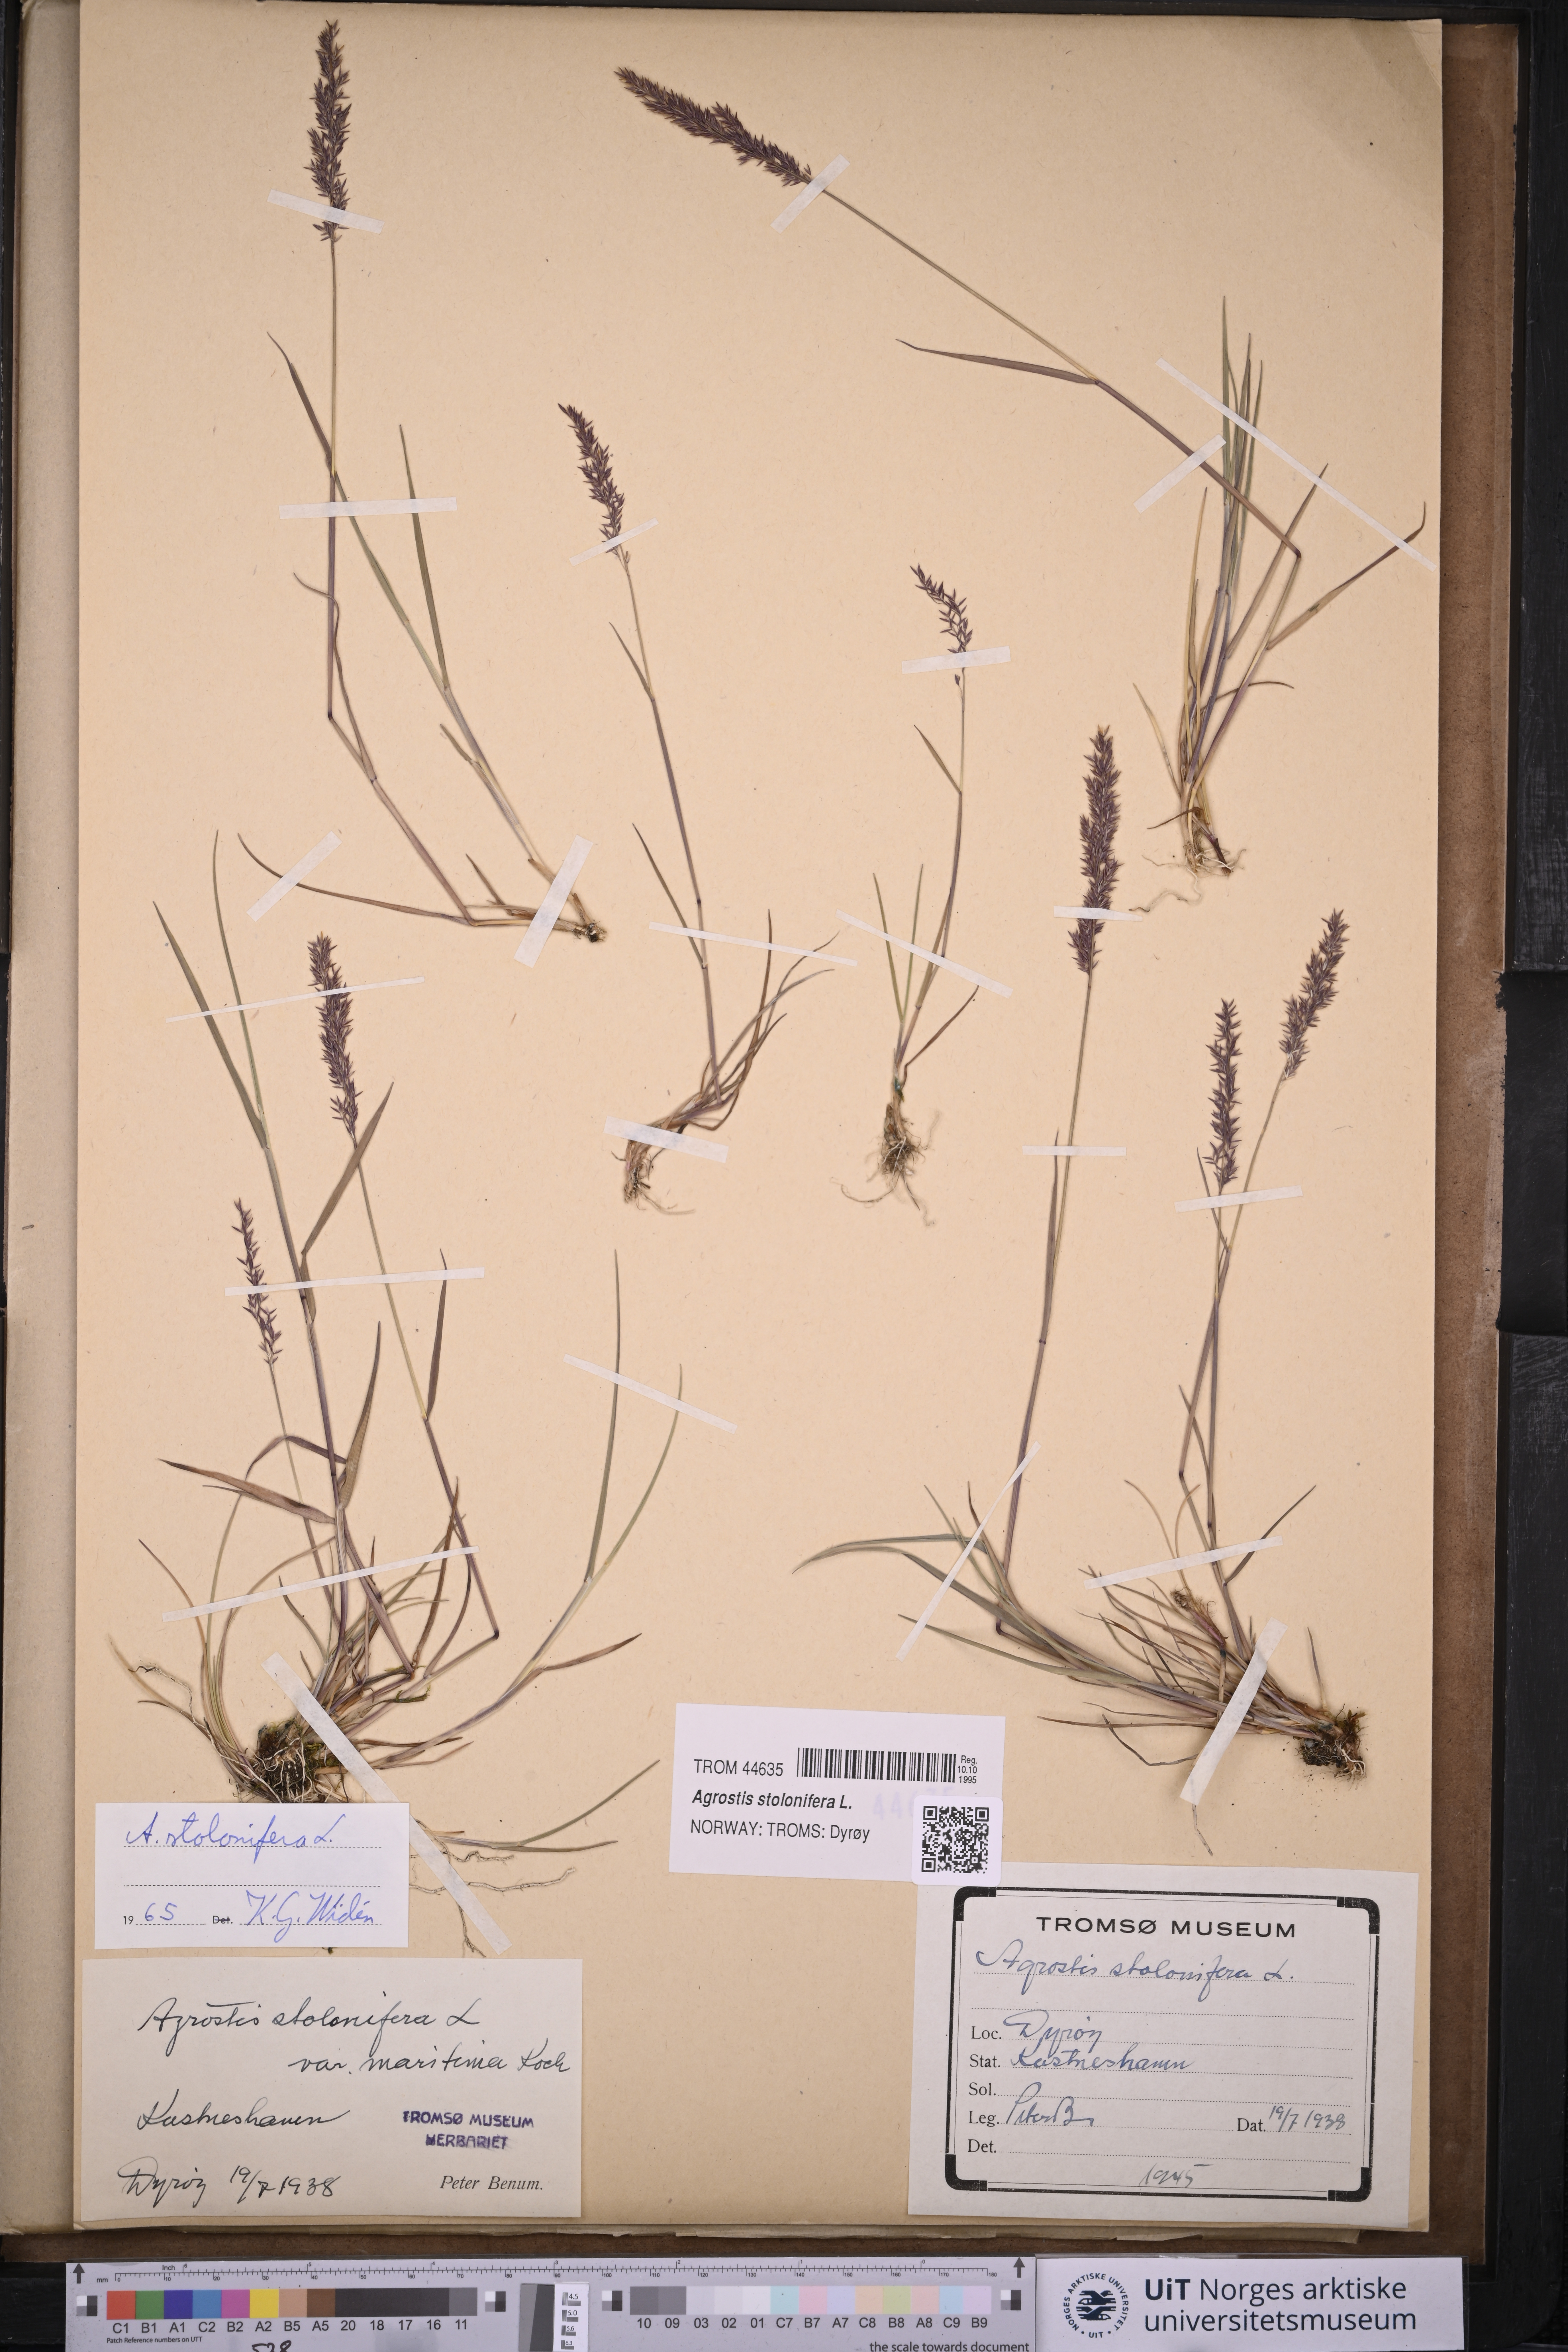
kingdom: Plantae
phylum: Tracheophyta
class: Liliopsida
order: Poales
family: Poaceae
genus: Agrostis
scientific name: Agrostis stolonifera
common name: Creeping bentgrass
